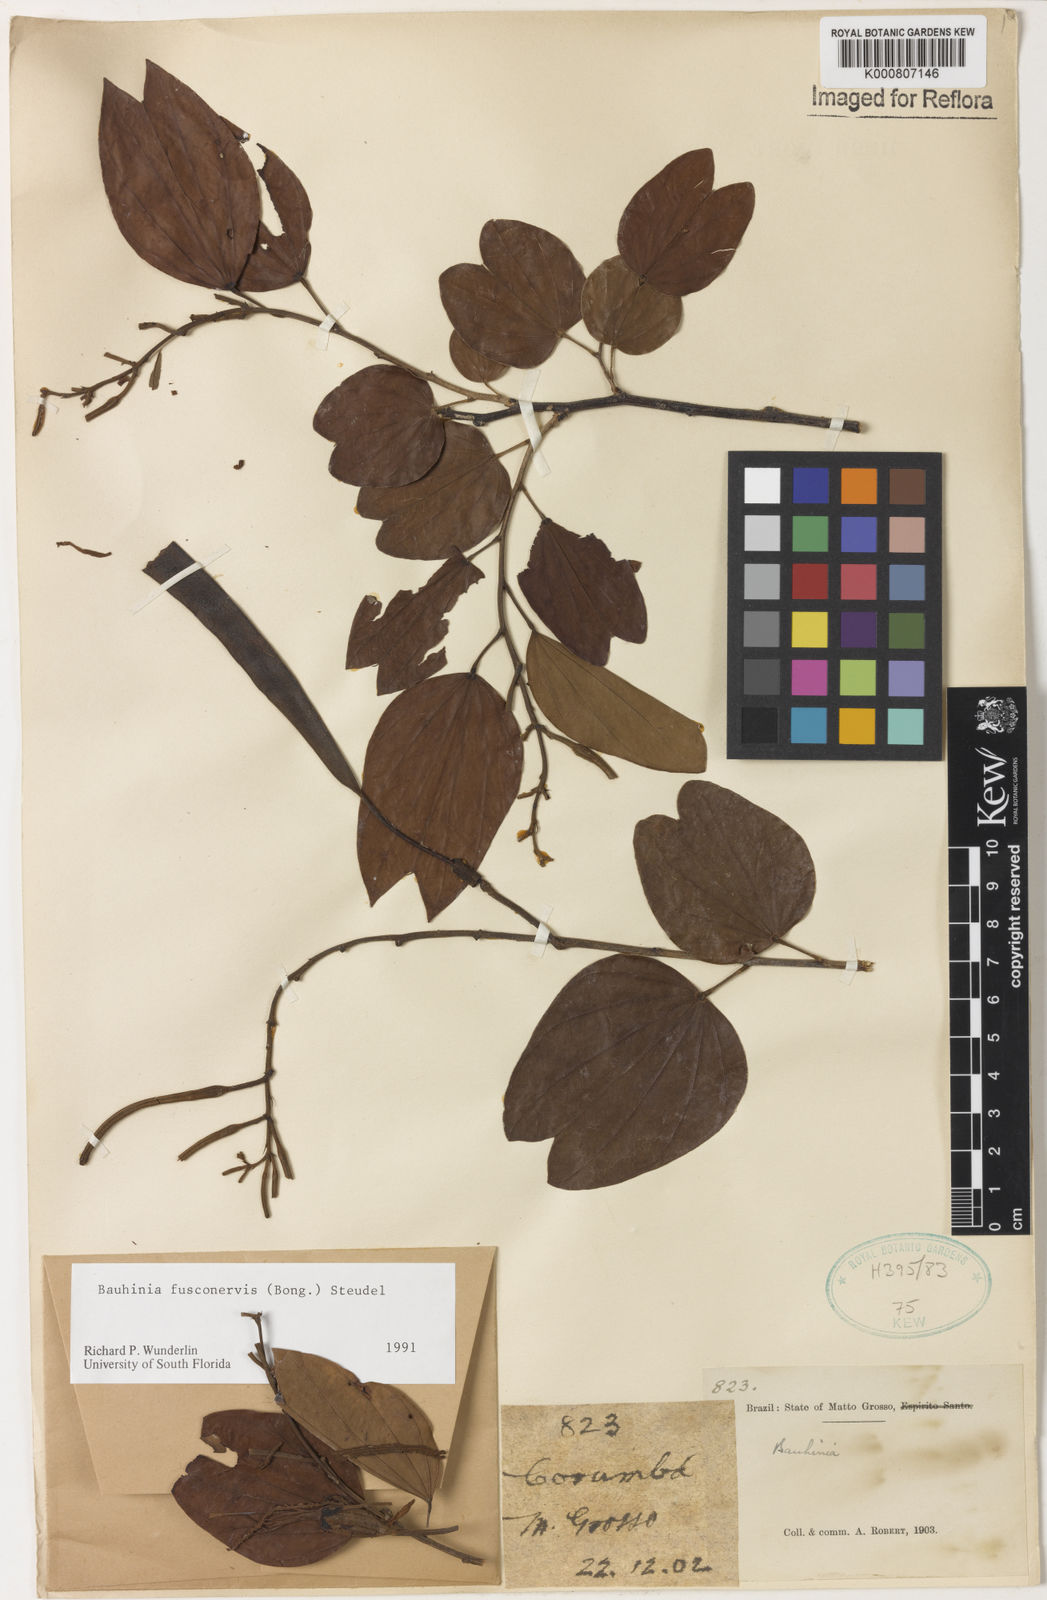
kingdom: Plantae
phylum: Tracheophyta
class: Magnoliopsida
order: Fabales
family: Fabaceae
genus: Bauhinia
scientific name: Bauhinia
